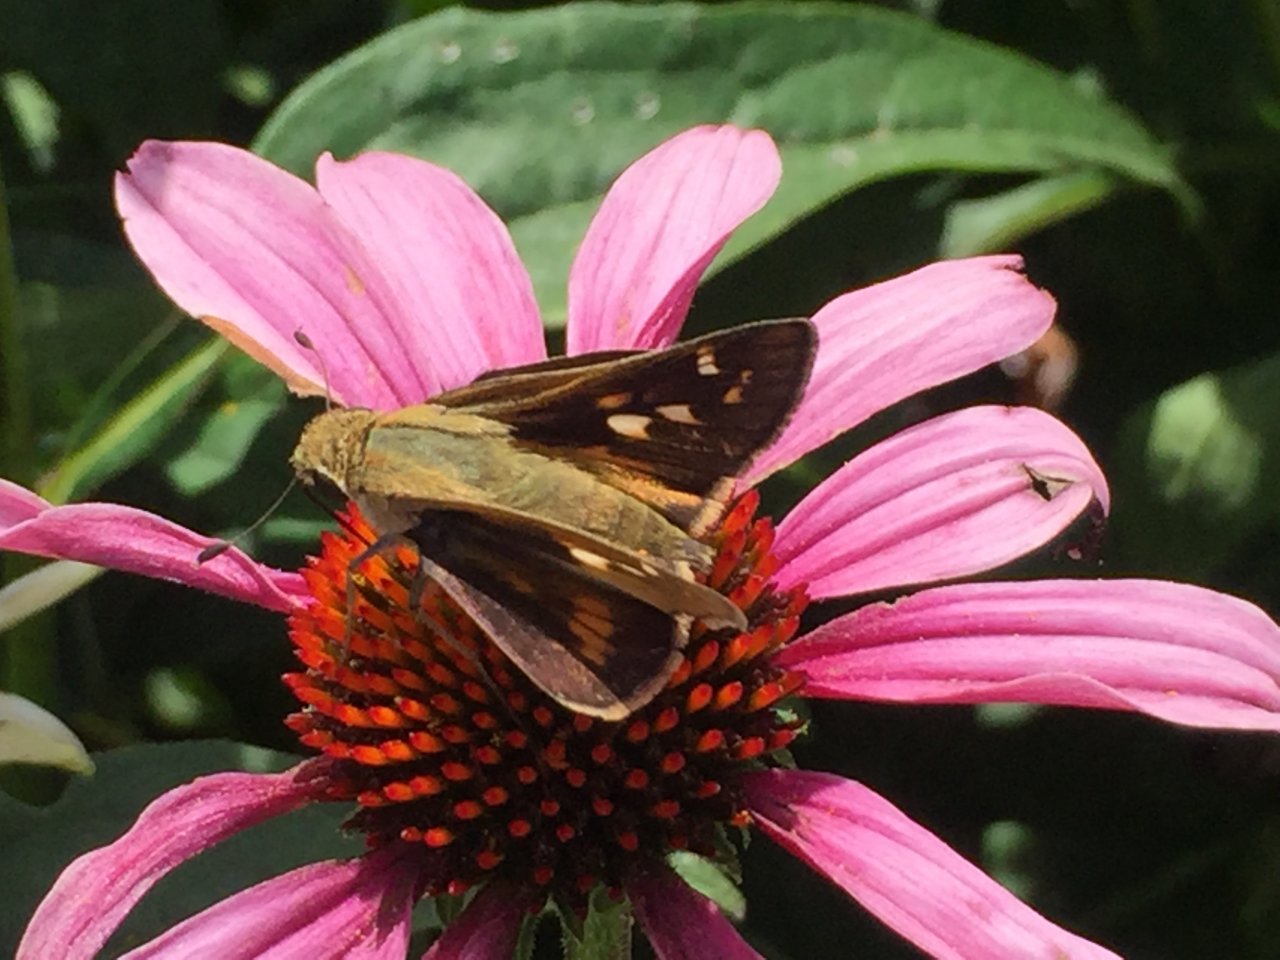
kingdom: Animalia
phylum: Arthropoda
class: Insecta
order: Lepidoptera
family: Hesperiidae
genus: Atalopedes
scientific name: Atalopedes campestris
